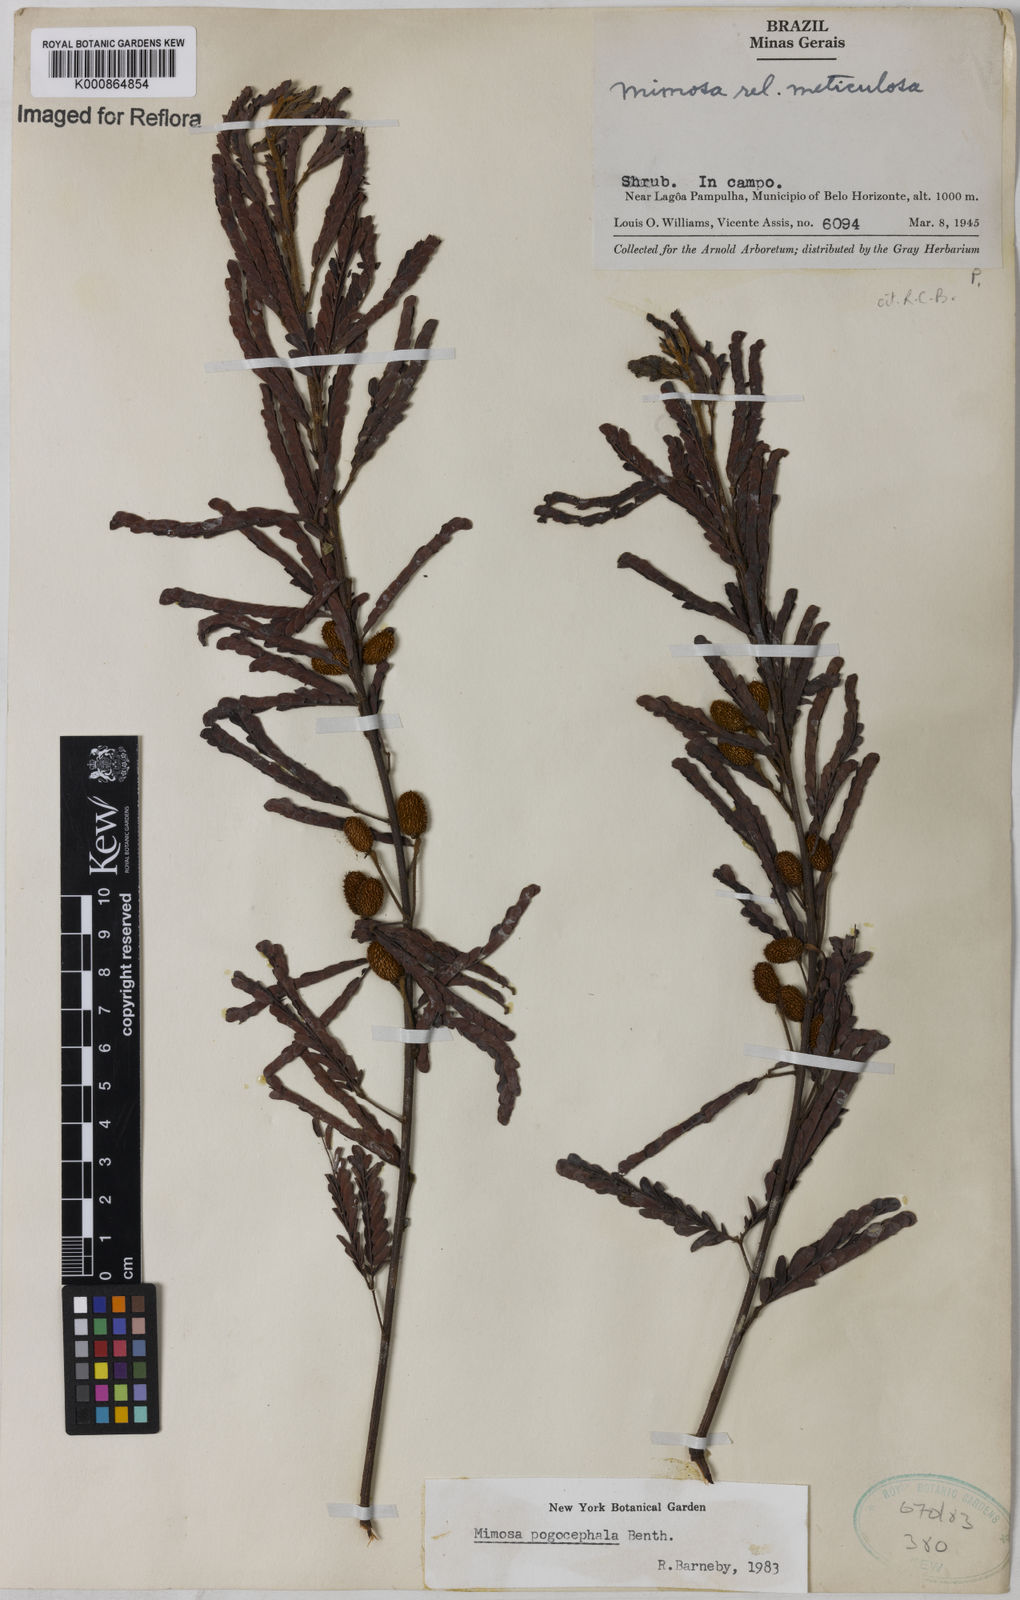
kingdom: Plantae
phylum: Tracheophyta
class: Magnoliopsida
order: Fabales
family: Fabaceae
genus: Mimosa
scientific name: Mimosa pogocephala
